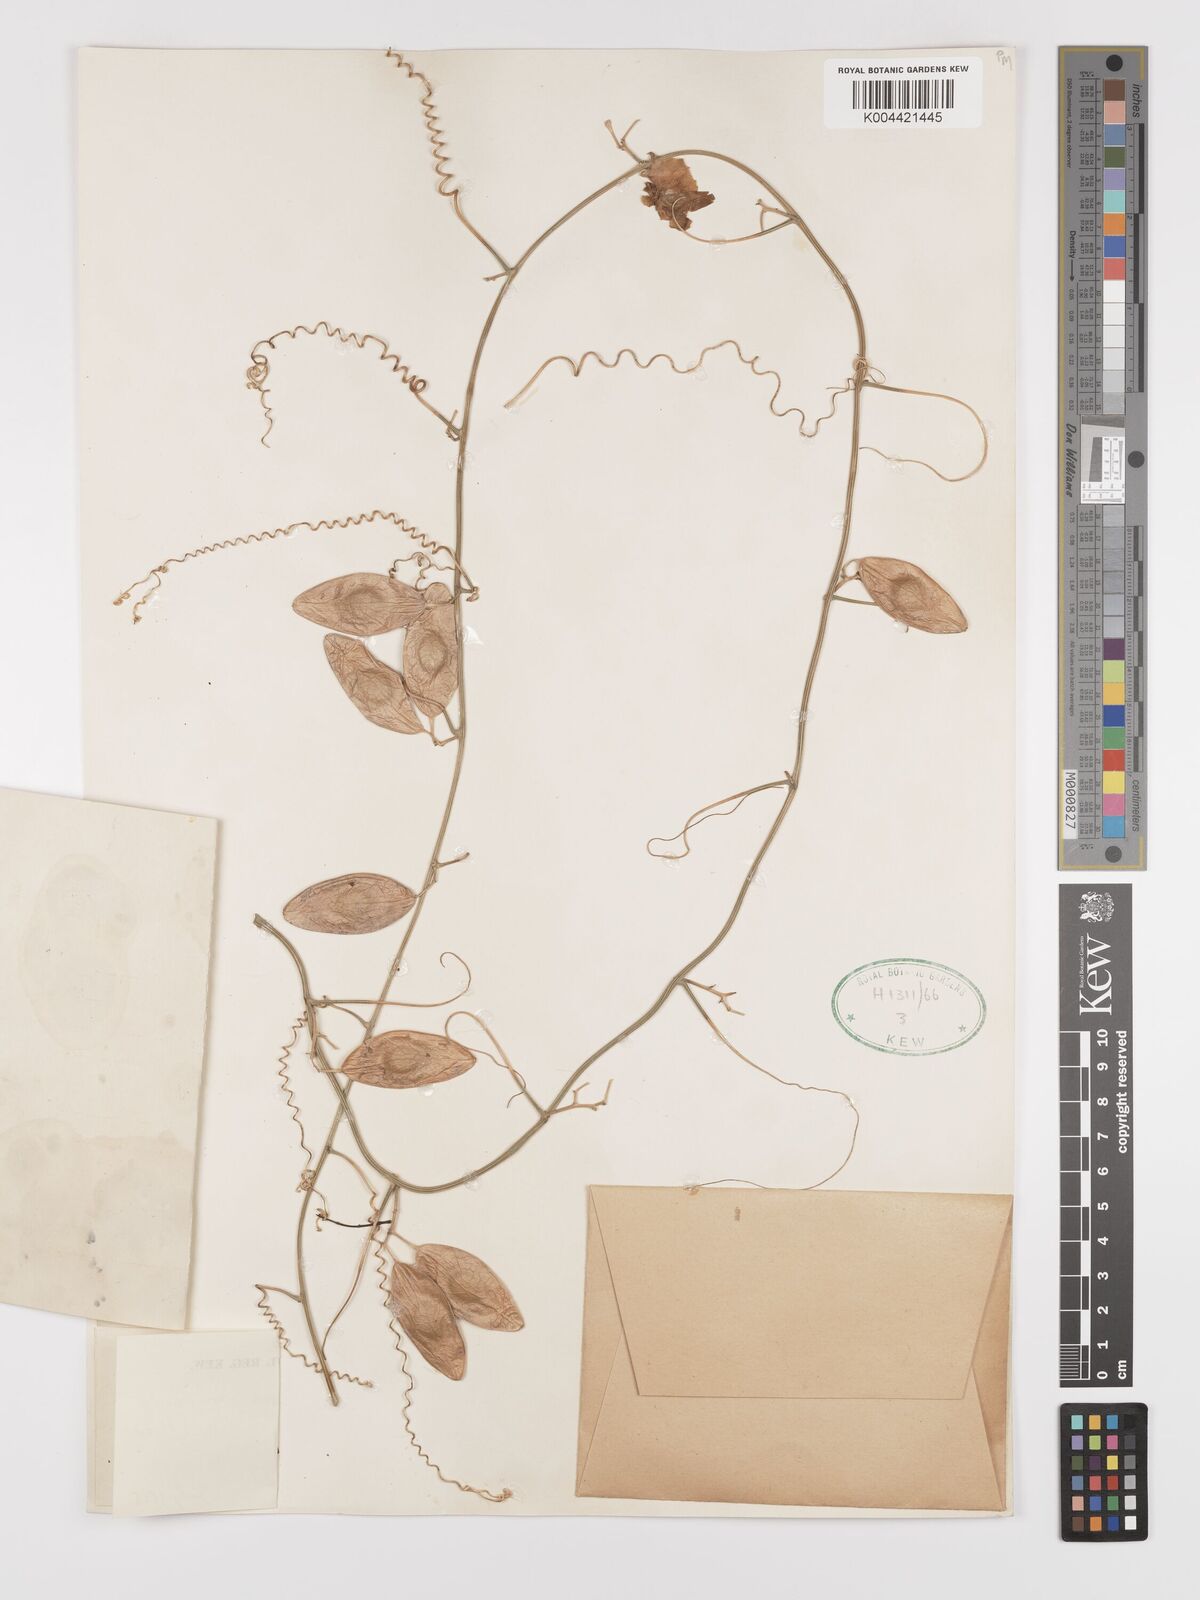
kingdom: Plantae
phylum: Tracheophyta
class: Magnoliopsida
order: Cucurbitales
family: Cucurbitaceae
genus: Cyclantheropsis
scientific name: Cyclantheropsis parviflora
